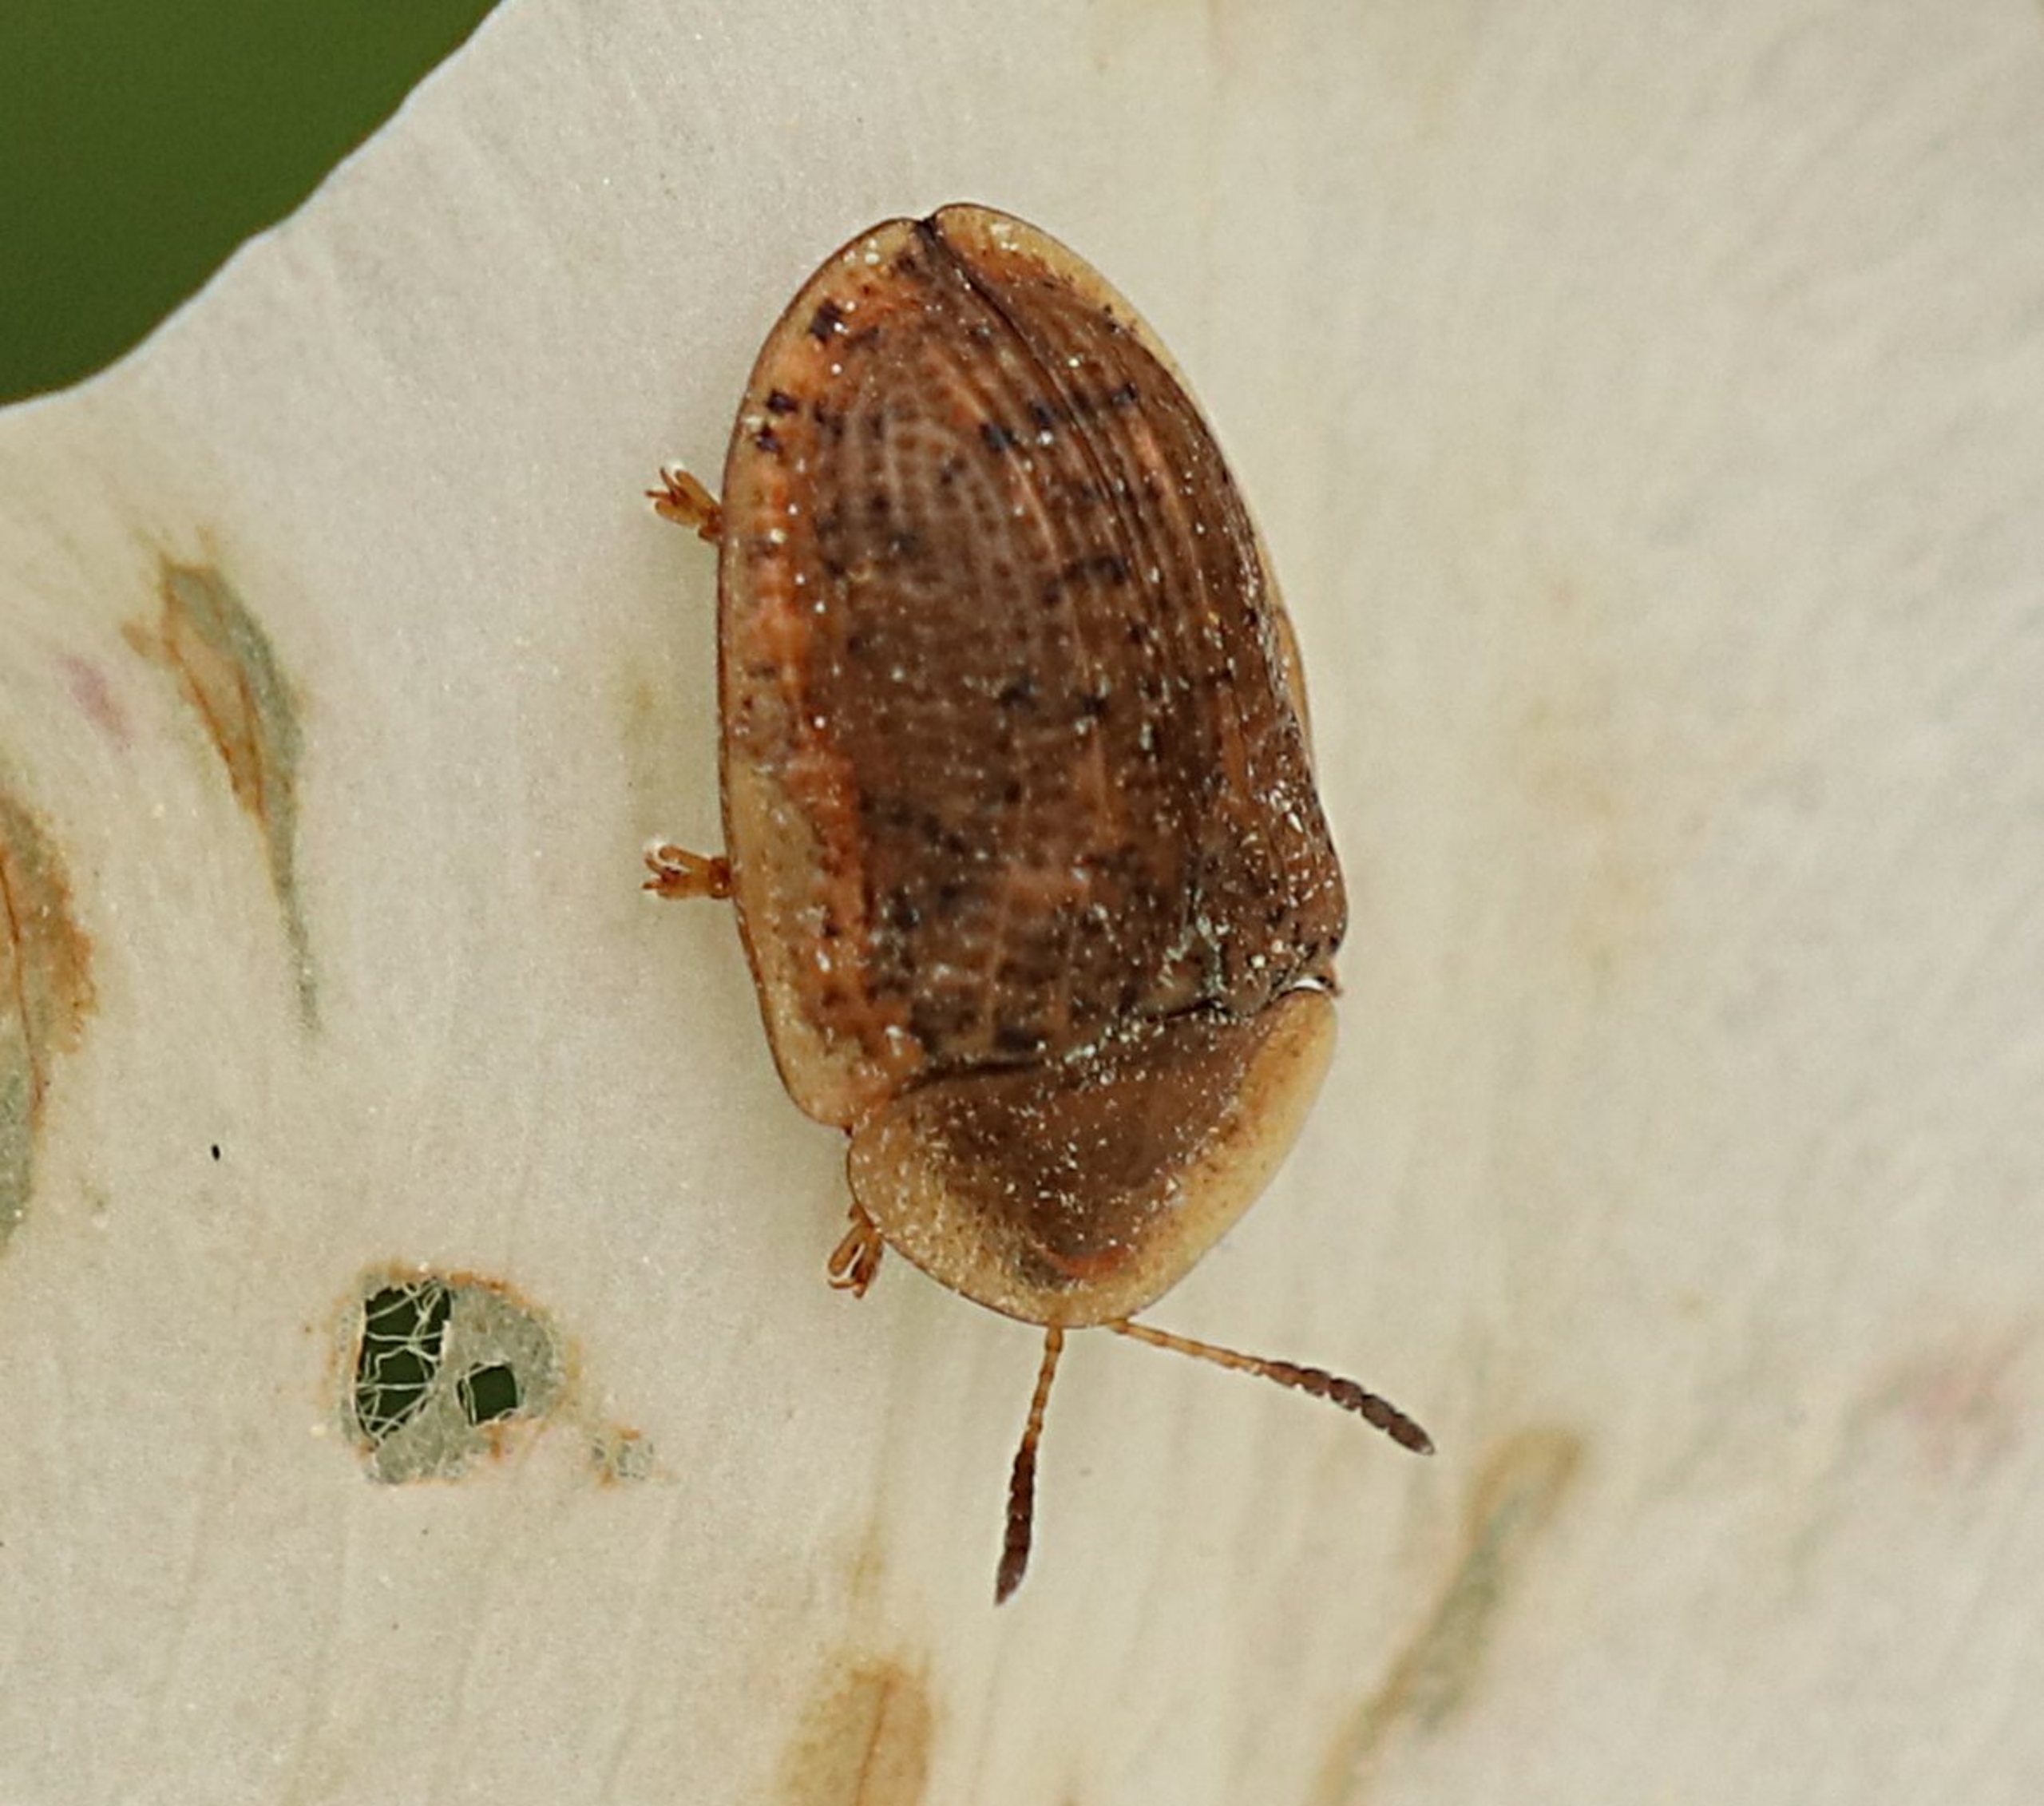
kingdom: Animalia
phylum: Arthropoda
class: Insecta
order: Coleoptera
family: Chrysomelidae
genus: Cassida
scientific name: Cassida nebulosa
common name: Plettet skjoldbille
